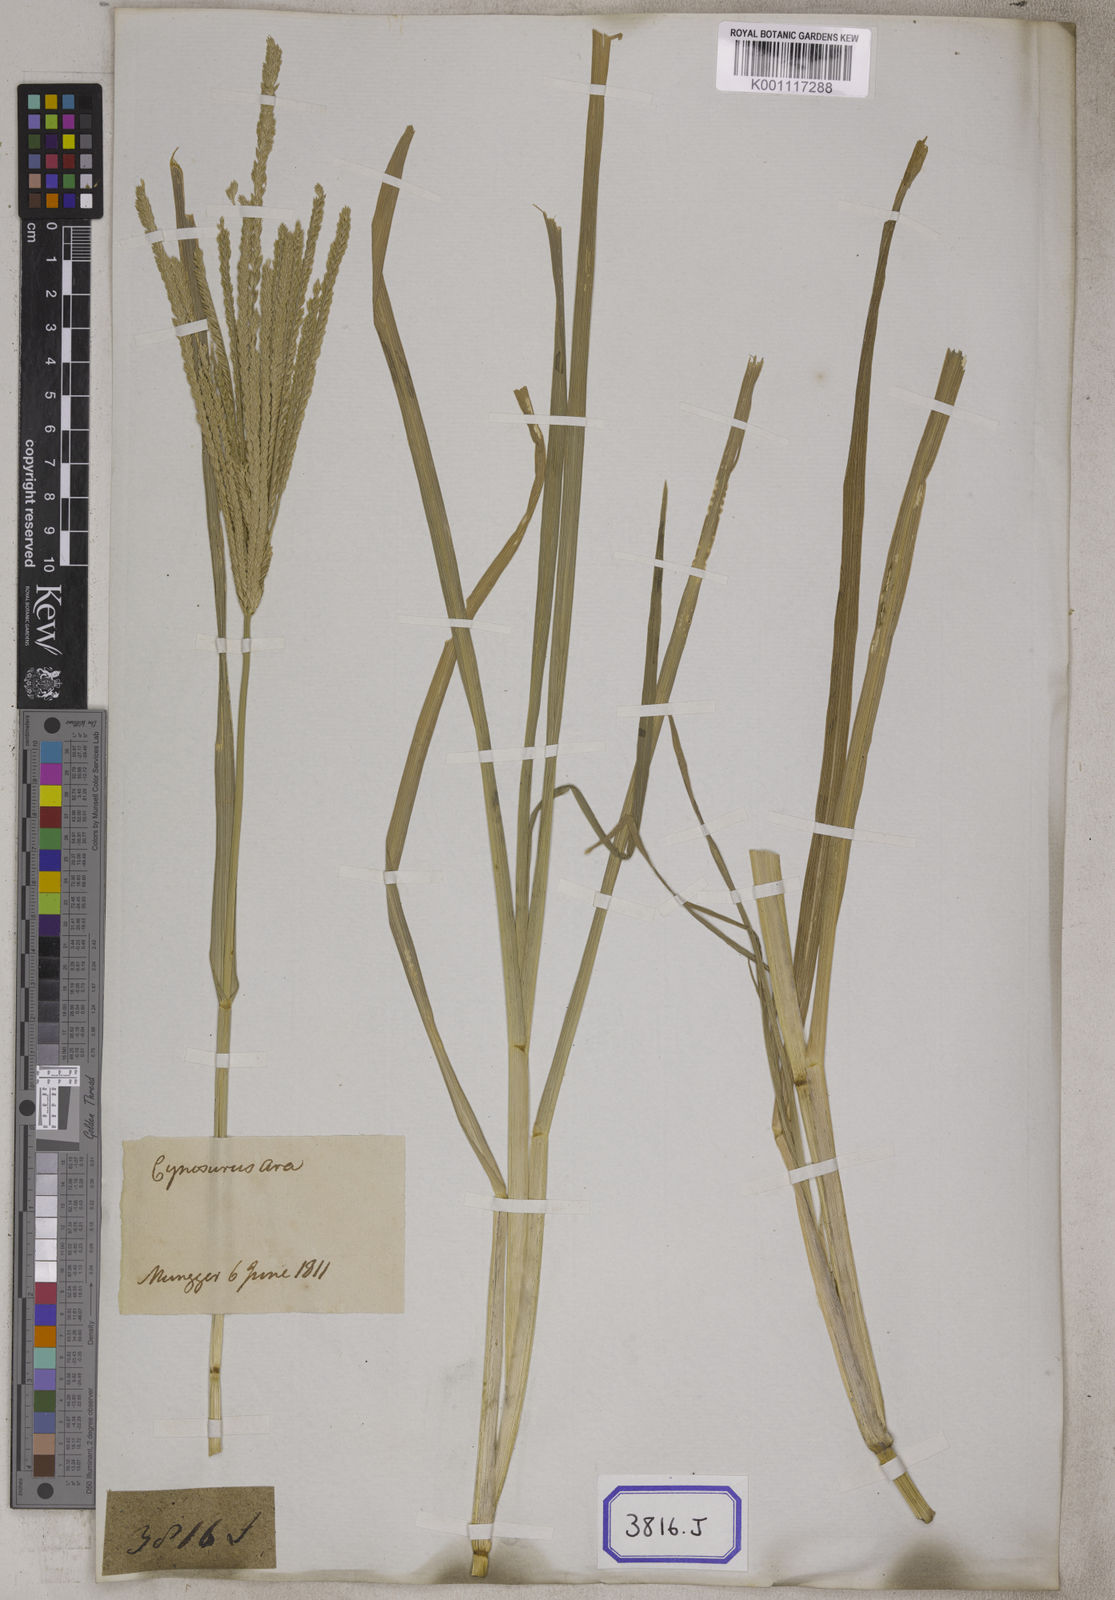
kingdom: Plantae
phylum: Tracheophyta
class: Liliopsida
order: Poales
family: Poaceae
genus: Eleusine
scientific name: Eleusine
